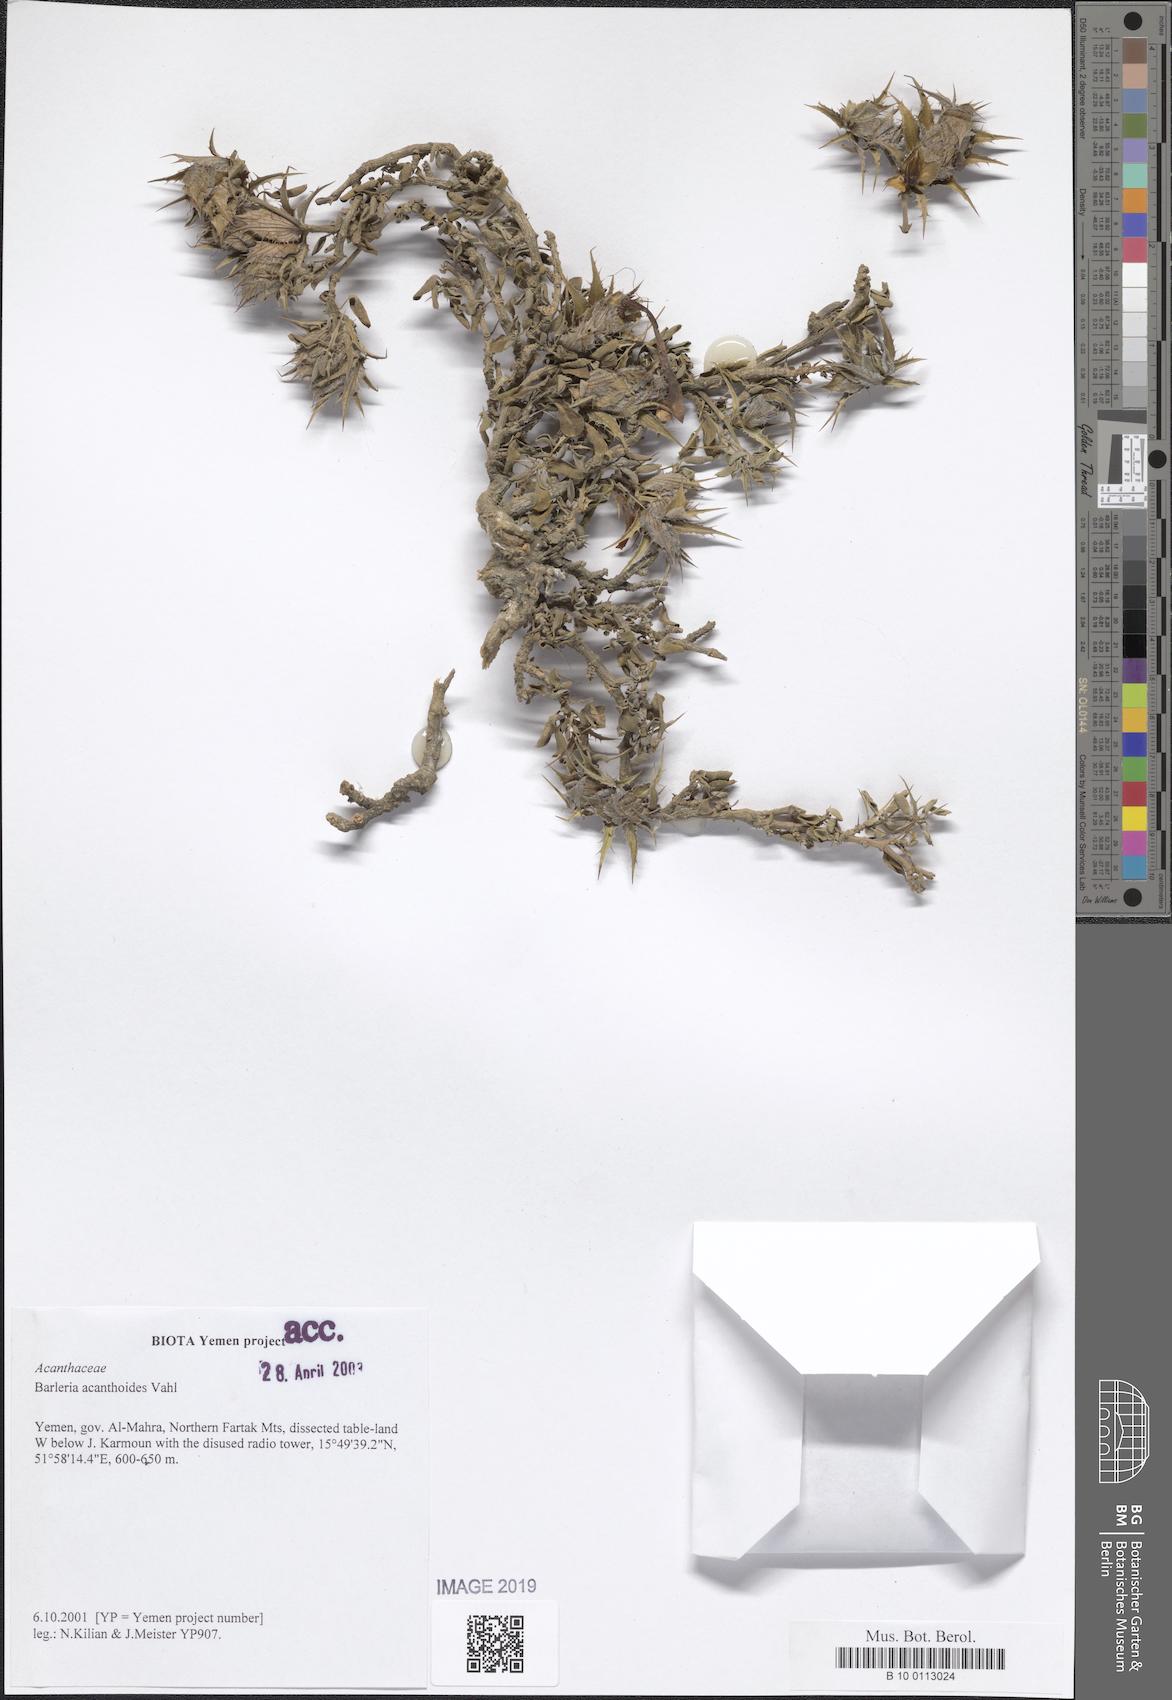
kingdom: Plantae
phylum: Tracheophyta
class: Magnoliopsida
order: Lamiales
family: Acanthaceae
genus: Barleria
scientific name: Barleria acanthoides
